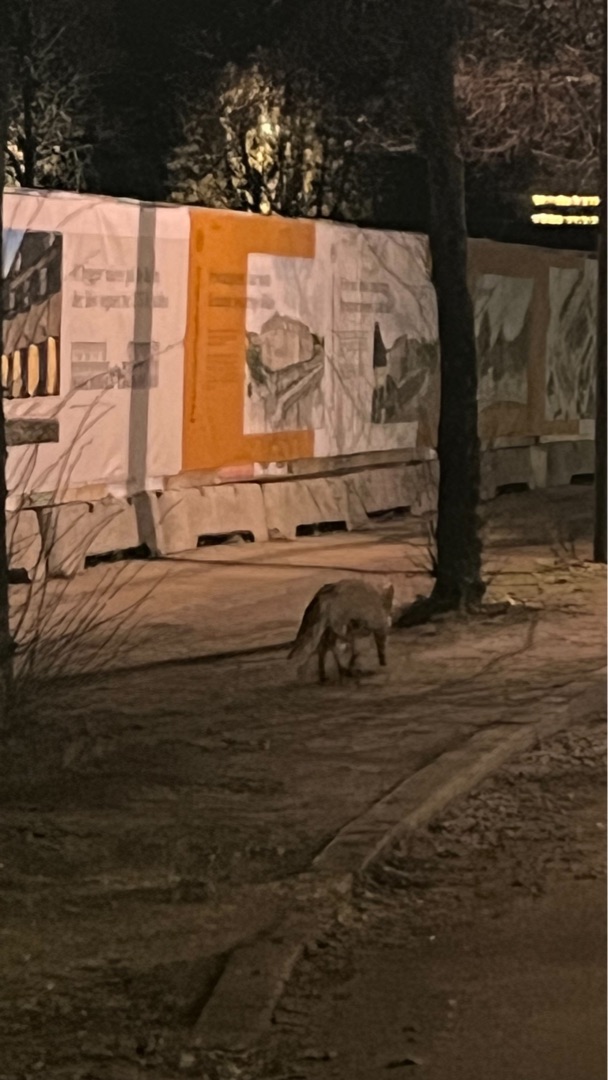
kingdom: Animalia
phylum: Chordata
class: Mammalia
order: Carnivora
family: Canidae
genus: Vulpes
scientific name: Vulpes vulpes
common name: Ræv
